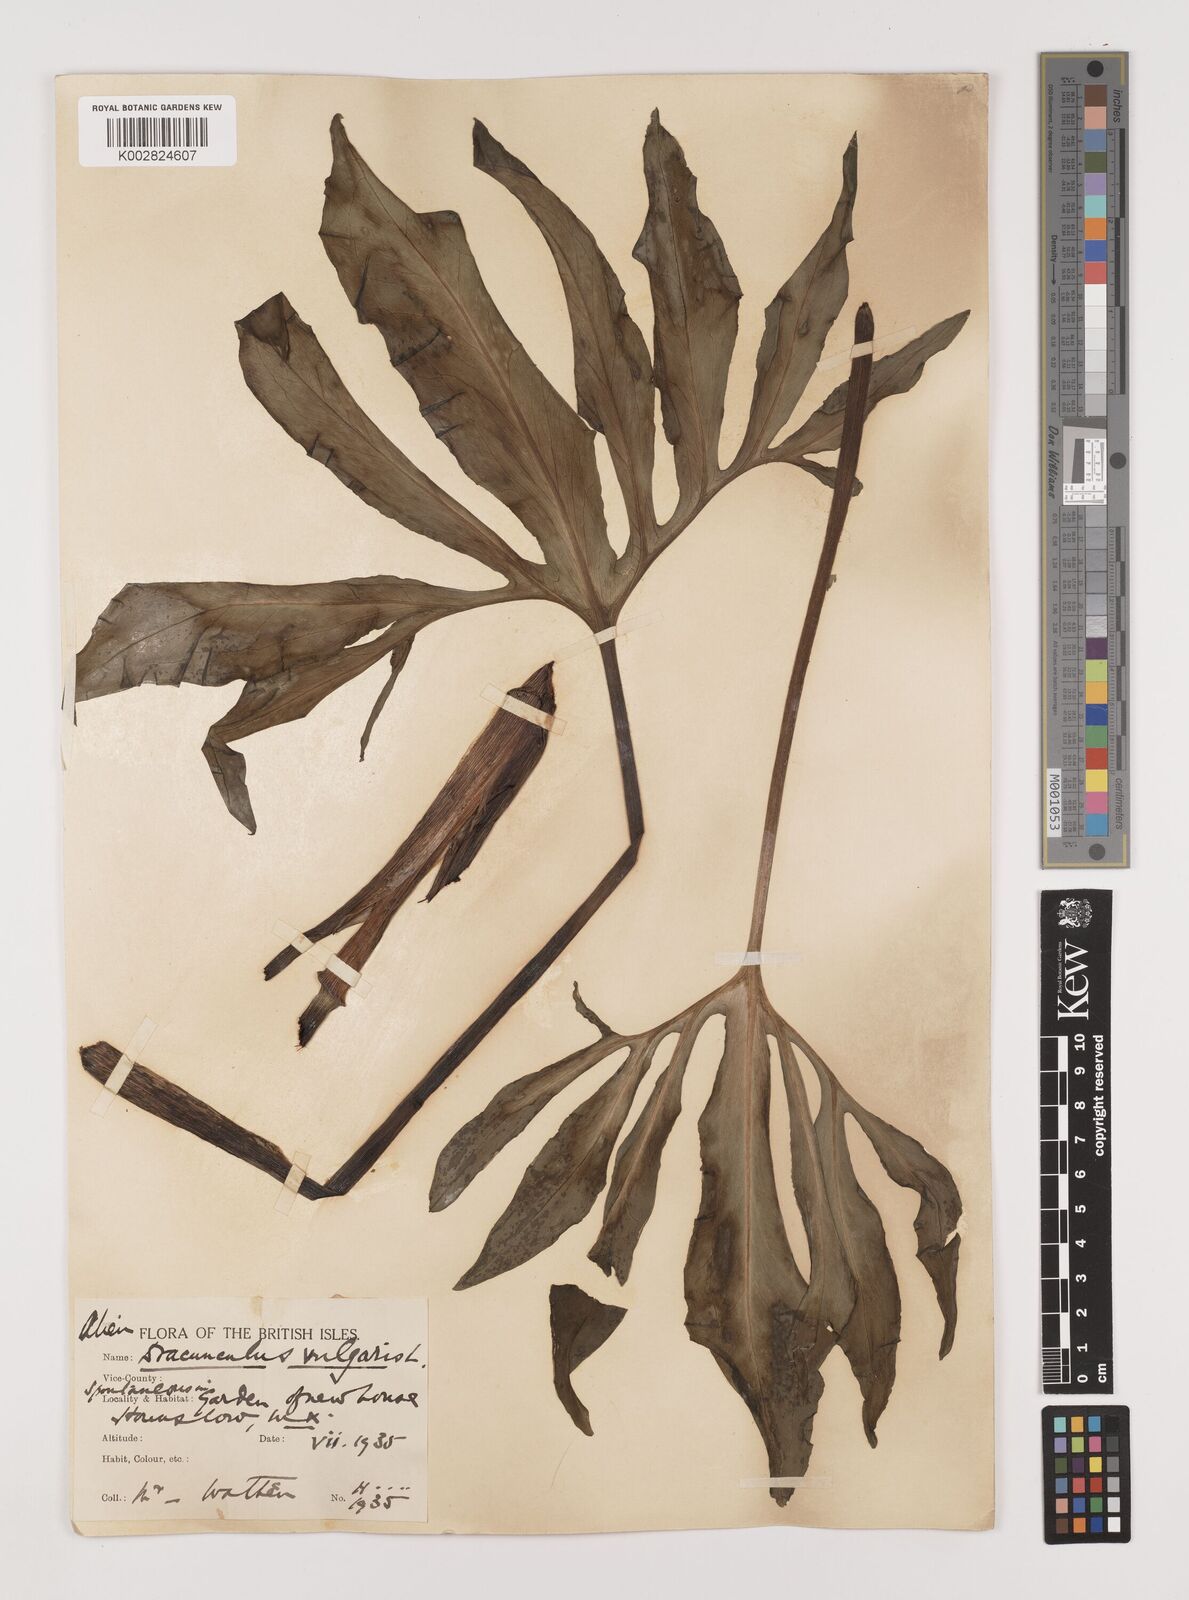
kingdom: Plantae
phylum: Tracheophyta
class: Liliopsida
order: Alismatales
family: Araceae
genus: Dracunculus
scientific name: Dracunculus vulgaris
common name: Dragon arum
